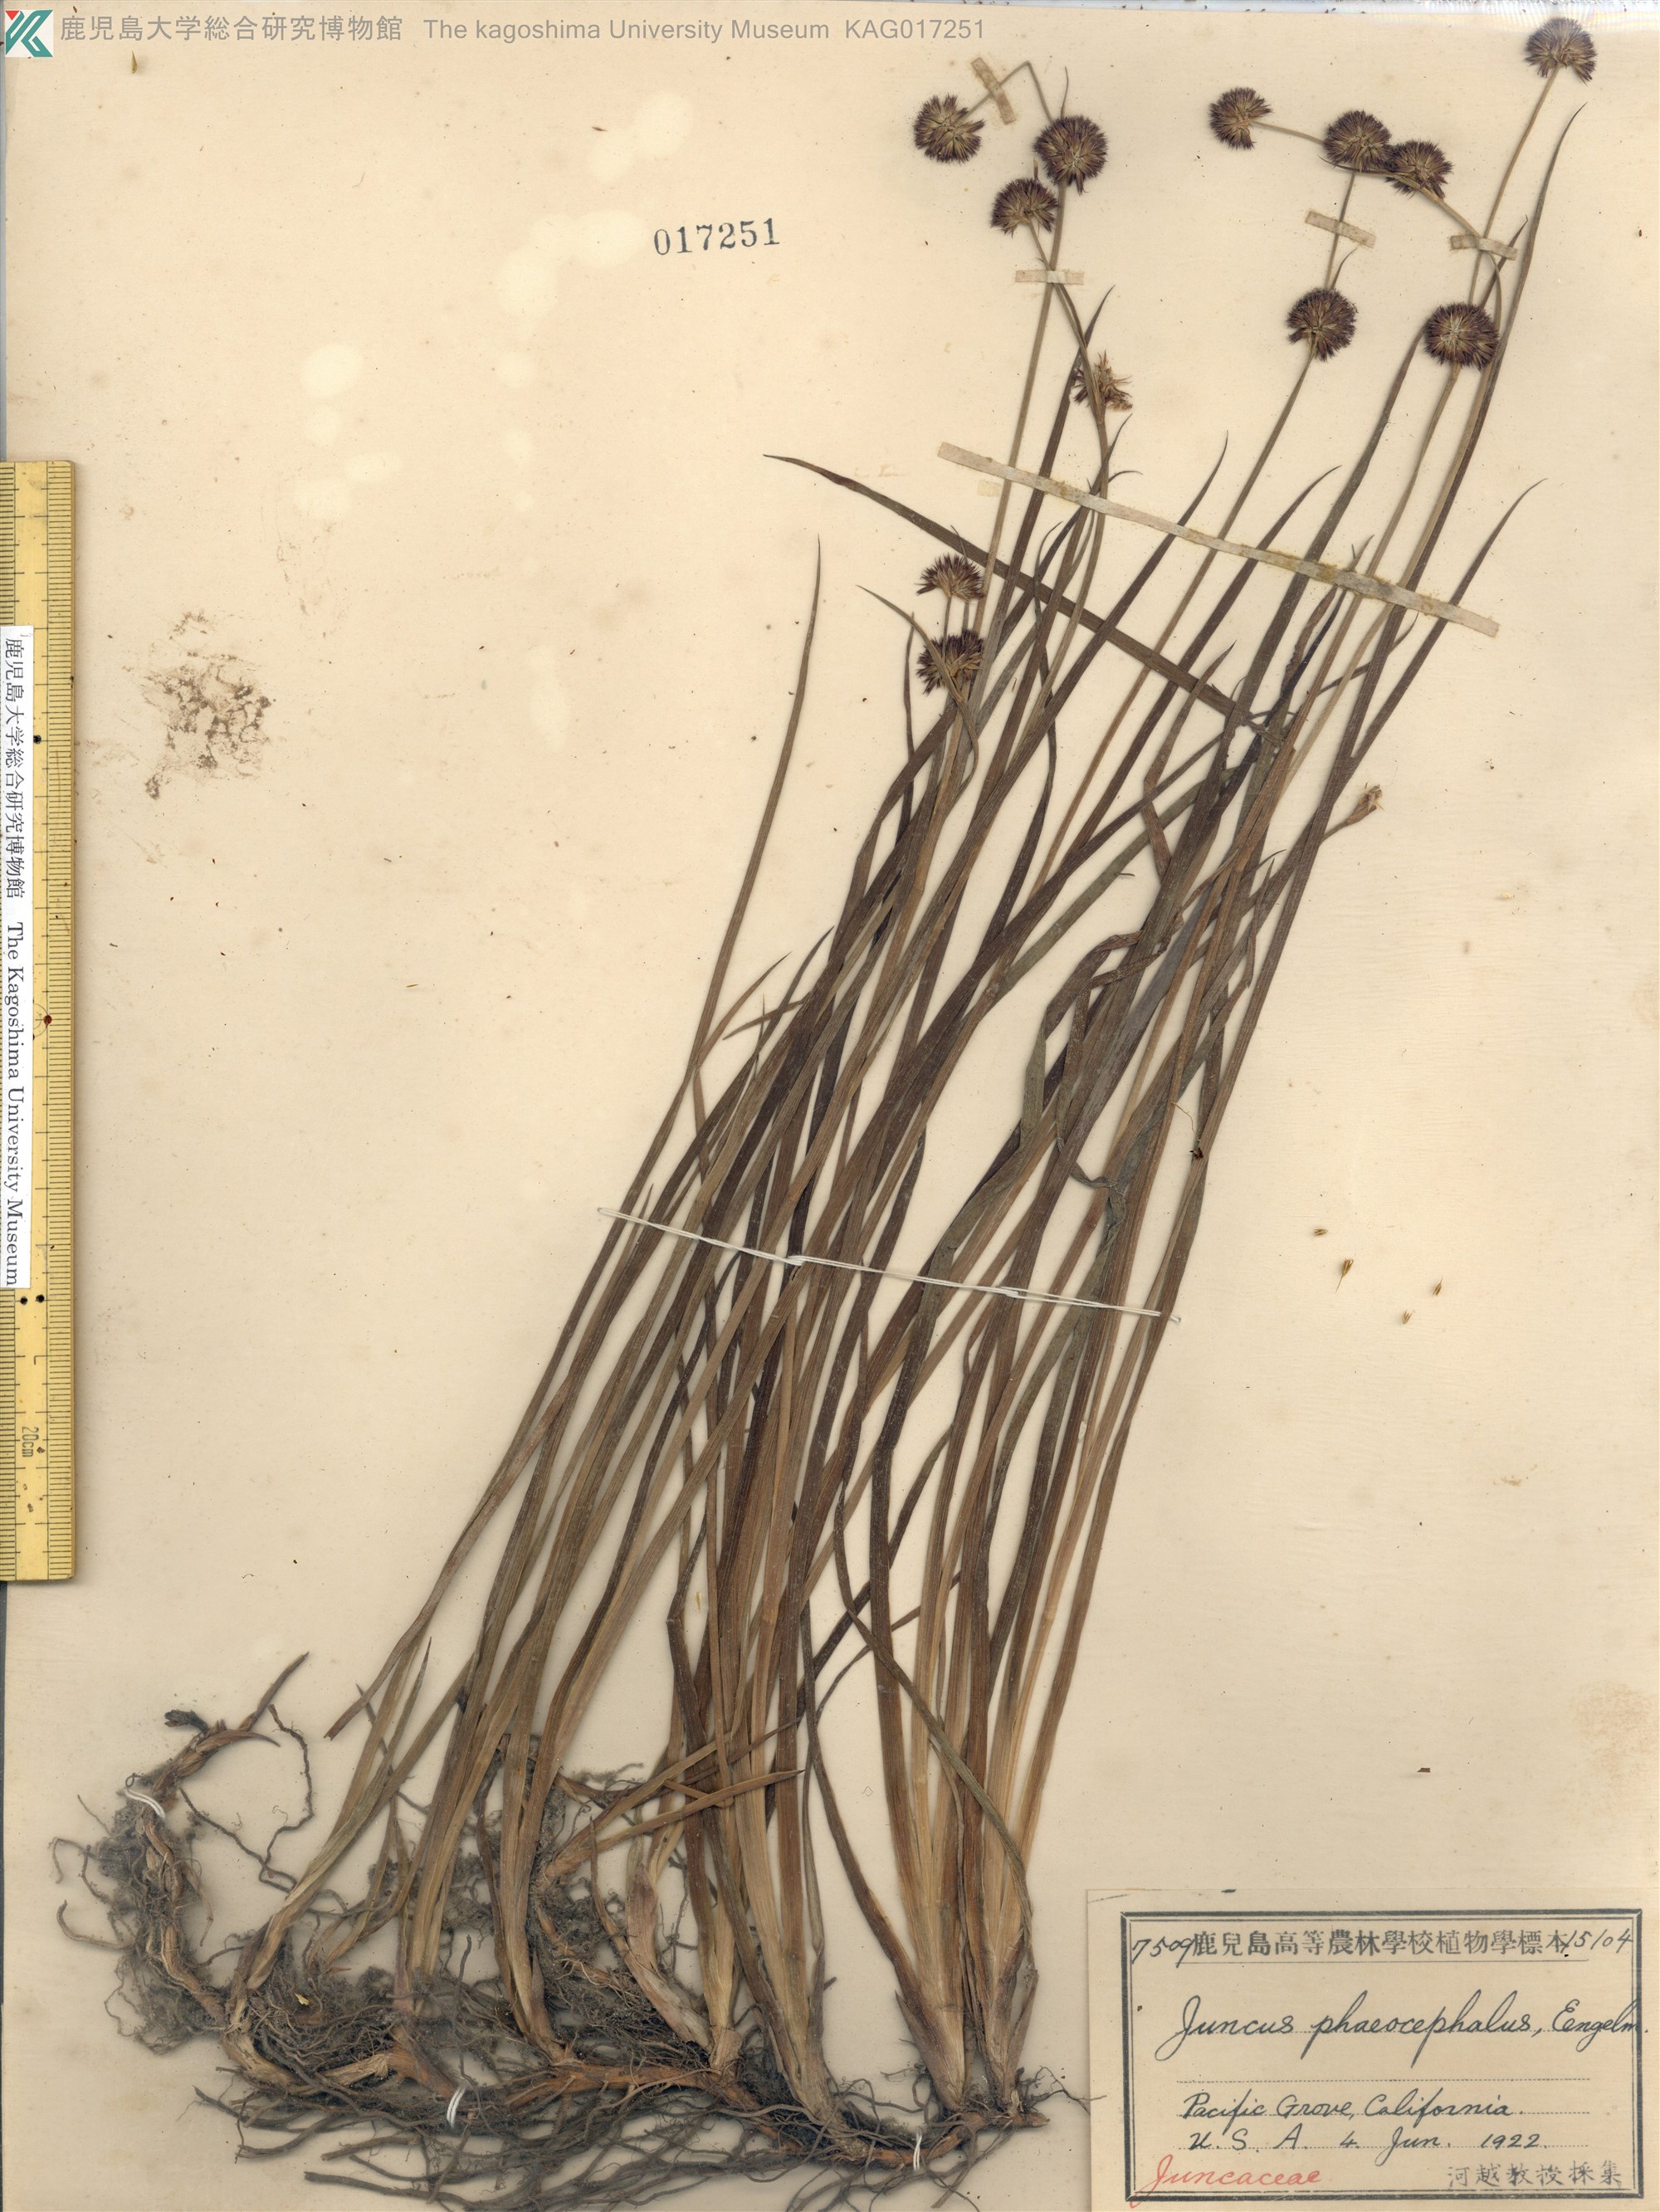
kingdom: Plantae
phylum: Tracheophyta
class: Liliopsida
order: Poales
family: Juncaceae
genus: Juncus
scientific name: Juncus phaeocephalus
